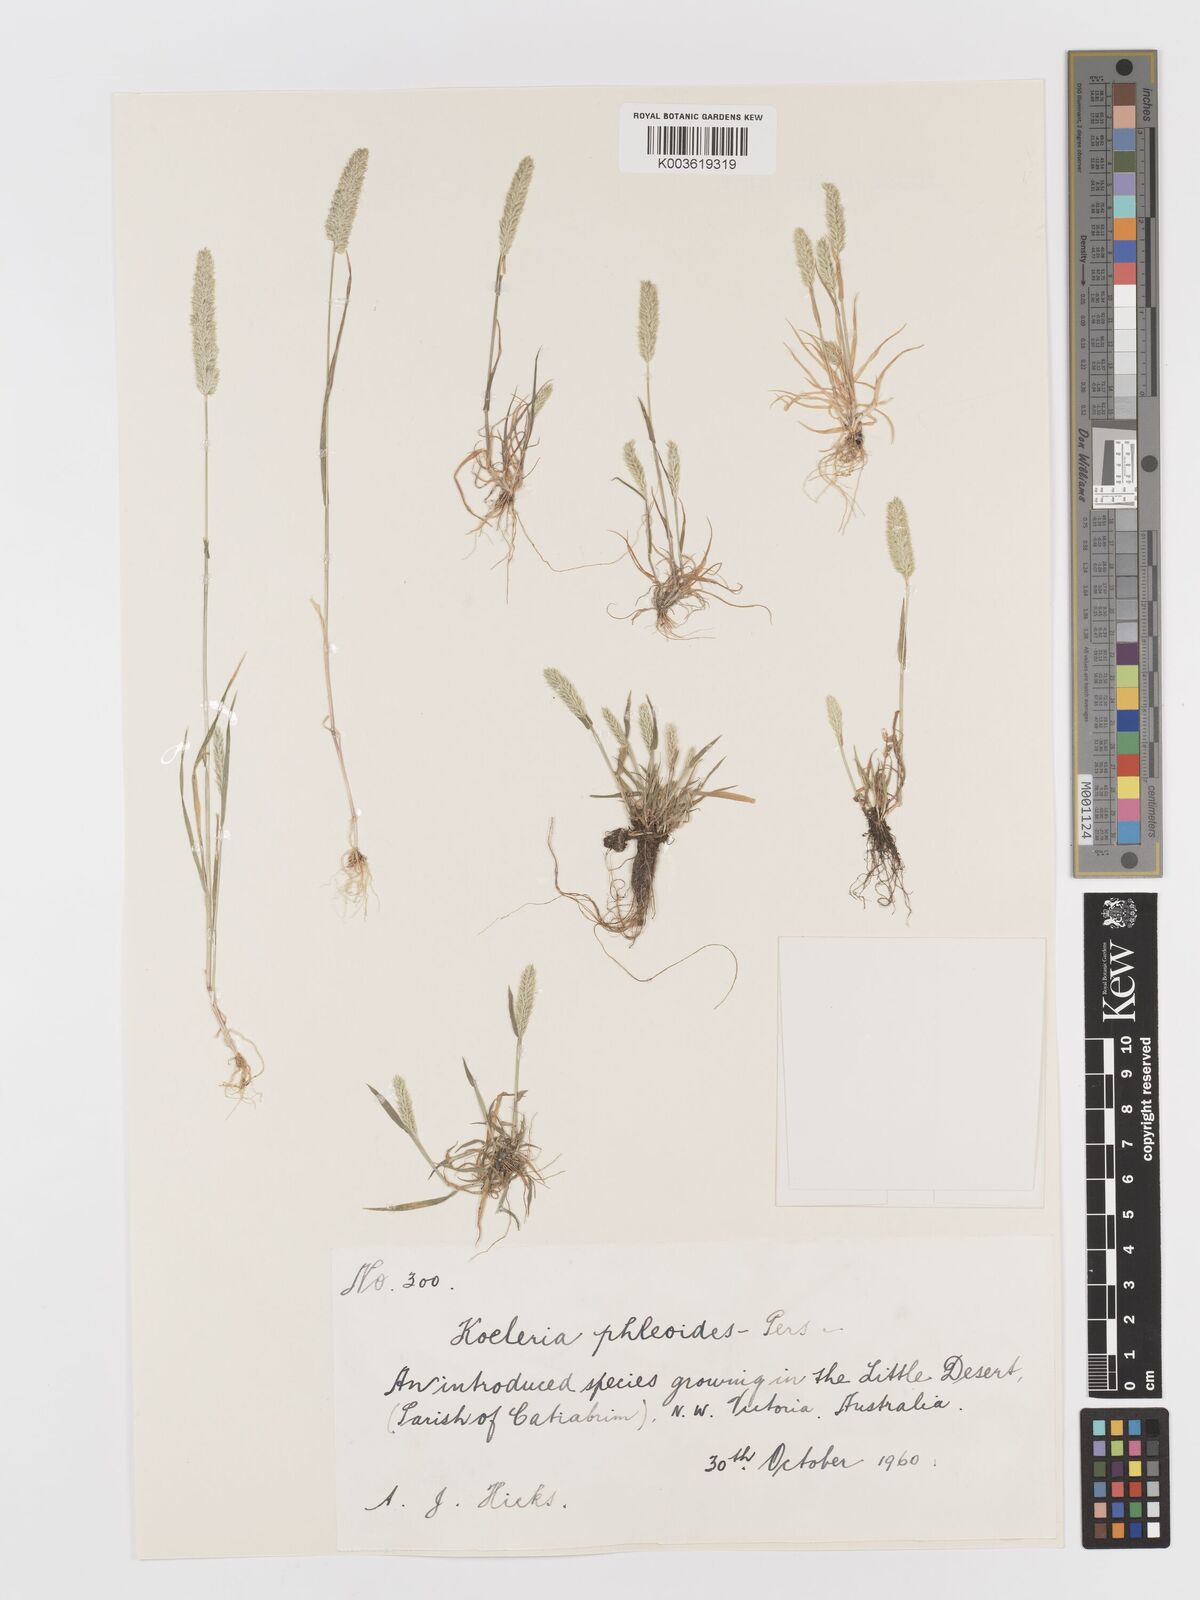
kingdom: Plantae
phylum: Tracheophyta
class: Liliopsida
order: Poales
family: Poaceae
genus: Rostraria
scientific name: Rostraria cristata
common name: Mediterranean hair-grass
